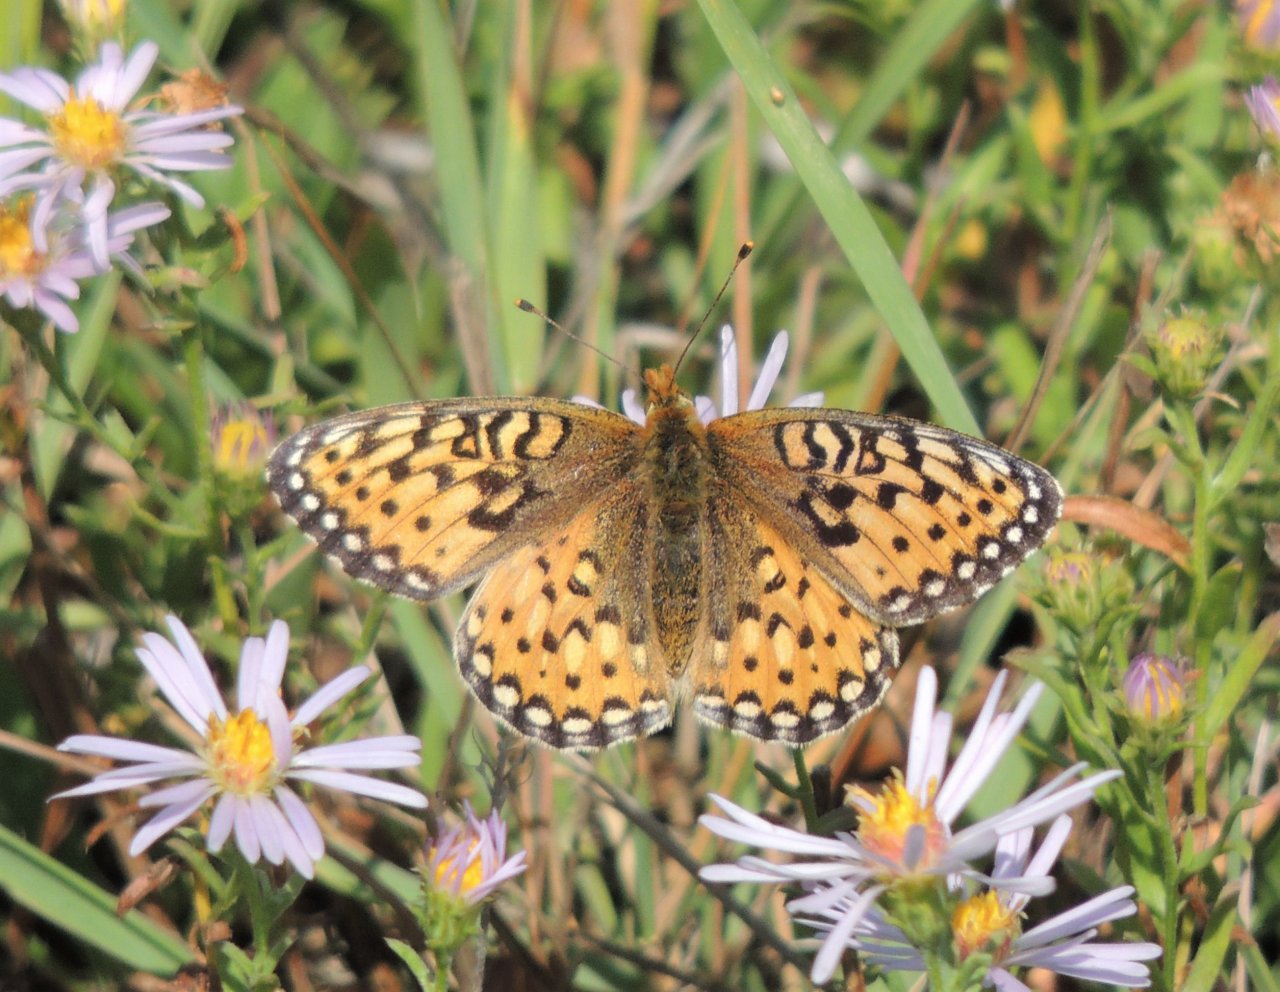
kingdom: Animalia
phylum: Arthropoda
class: Insecta
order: Lepidoptera
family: Nymphalidae
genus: Speyeria
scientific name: Speyeria mormonia
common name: Mormon Fritillary
